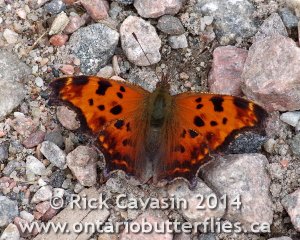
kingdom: Animalia
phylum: Arthropoda
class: Insecta
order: Lepidoptera
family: Nymphalidae
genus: Polygonia
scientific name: Polygonia comma
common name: Eastern Comma
